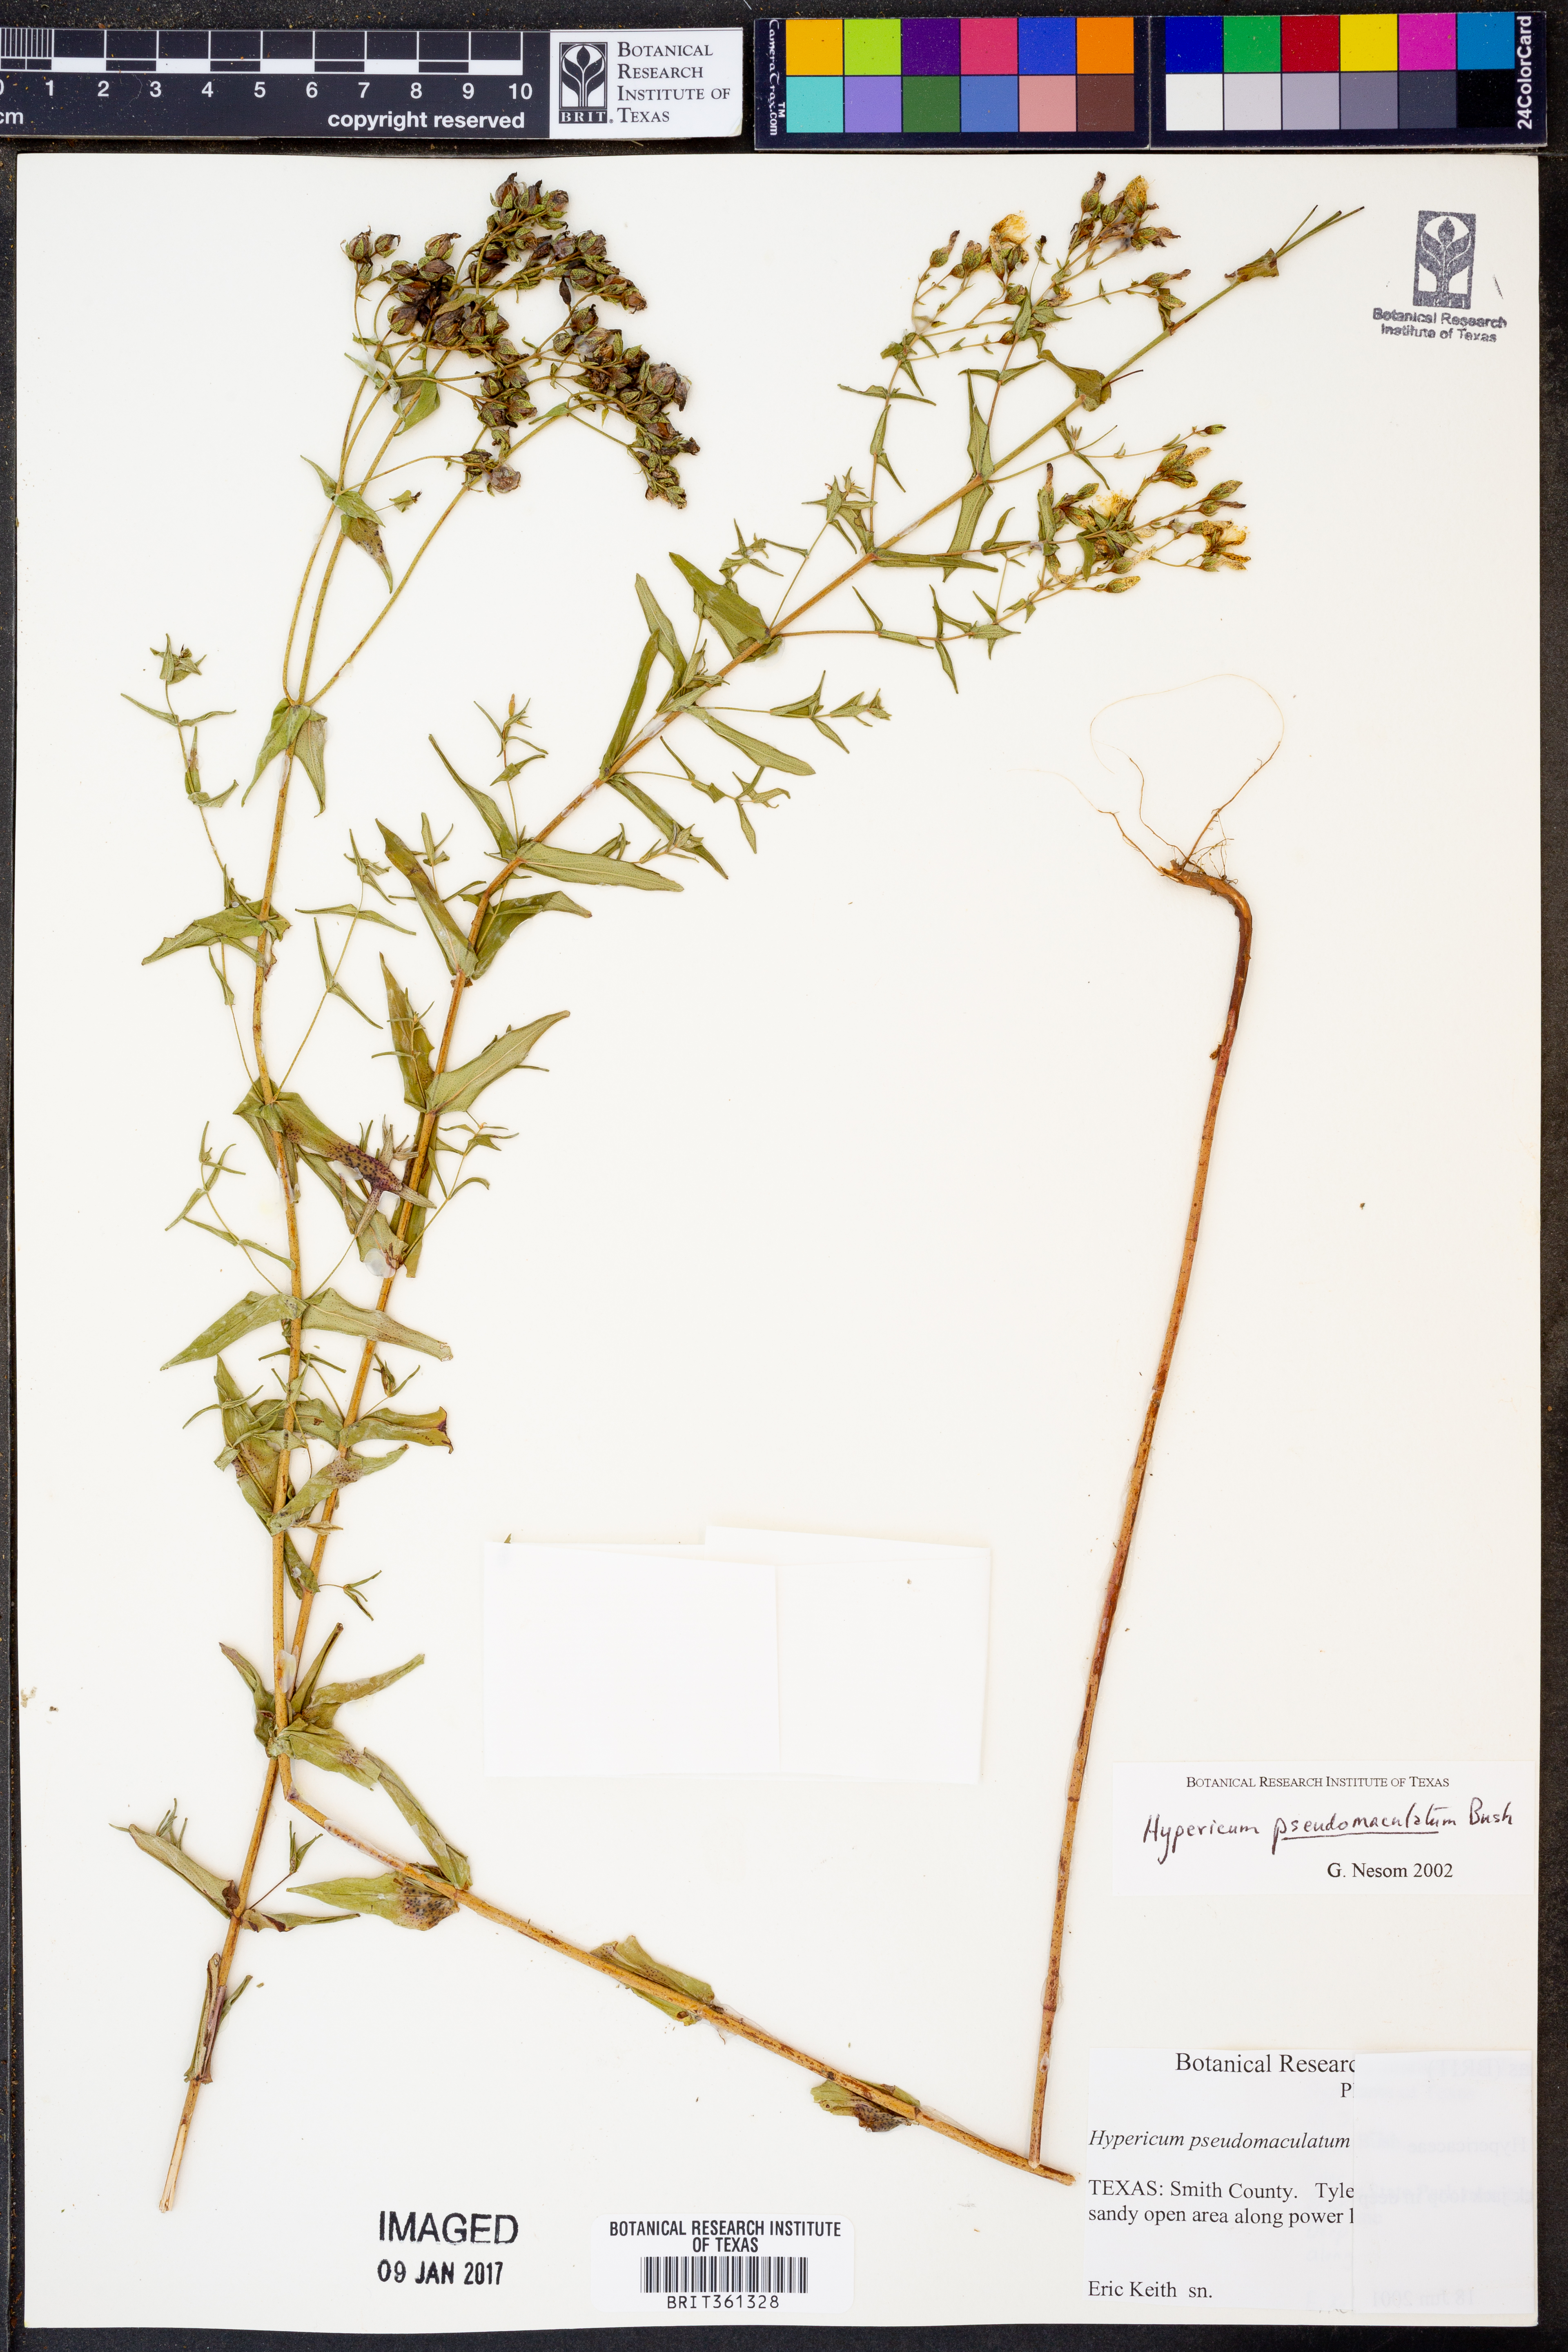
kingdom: Plantae
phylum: Tracheophyta
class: Magnoliopsida
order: Malpighiales
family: Hypericaceae
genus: Hypericum
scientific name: Hypericum pseudomaculatum
